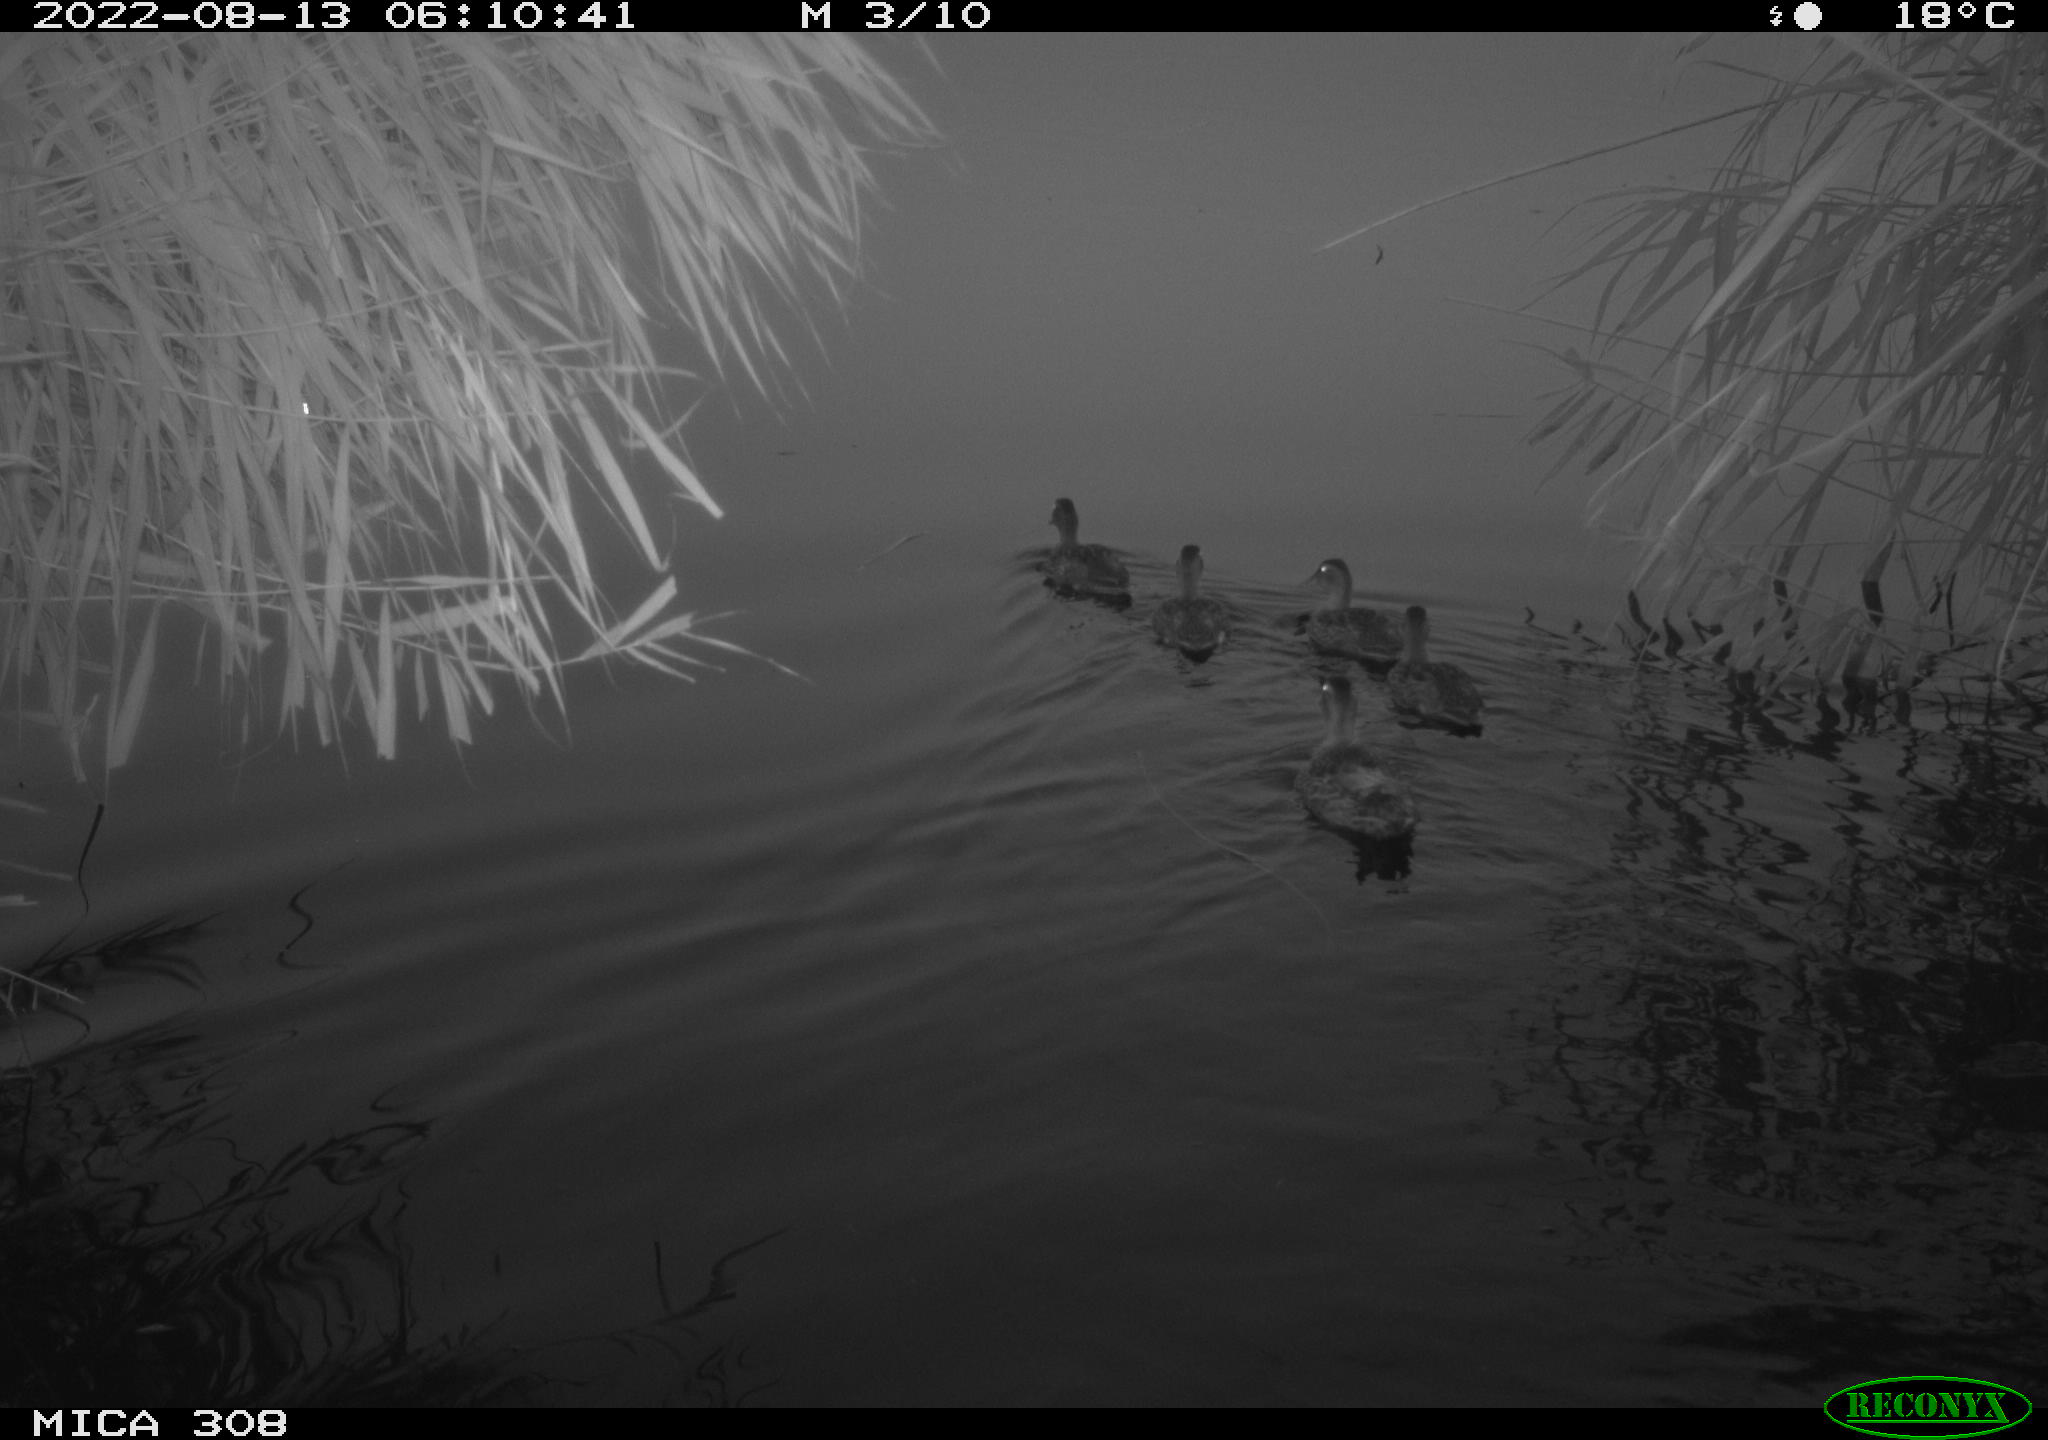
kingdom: Animalia
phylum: Chordata
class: Aves
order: Anseriformes
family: Anatidae
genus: Anas
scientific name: Anas platyrhynchos
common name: Mallard
